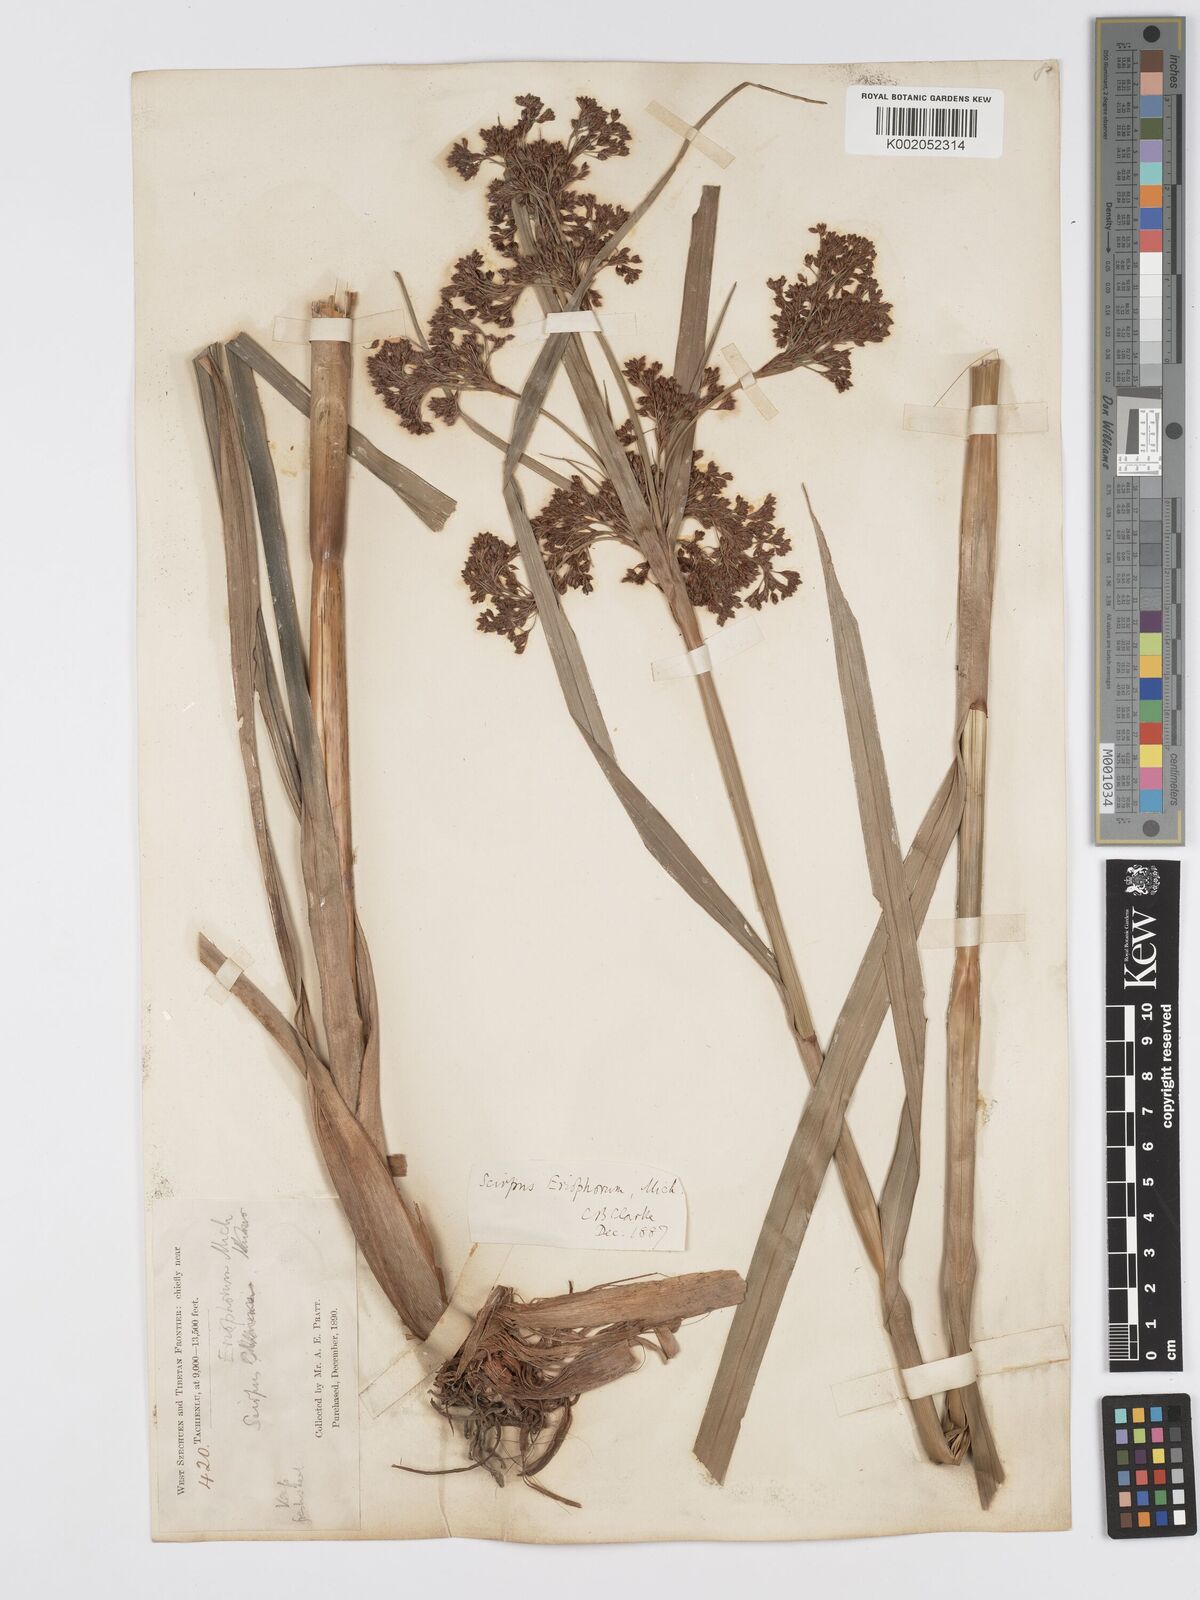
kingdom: Plantae
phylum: Tracheophyta
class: Liliopsida
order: Poales
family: Cyperaceae
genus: Scirpus
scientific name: Scirpus cyperinus
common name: Black-sheathed bulrush
